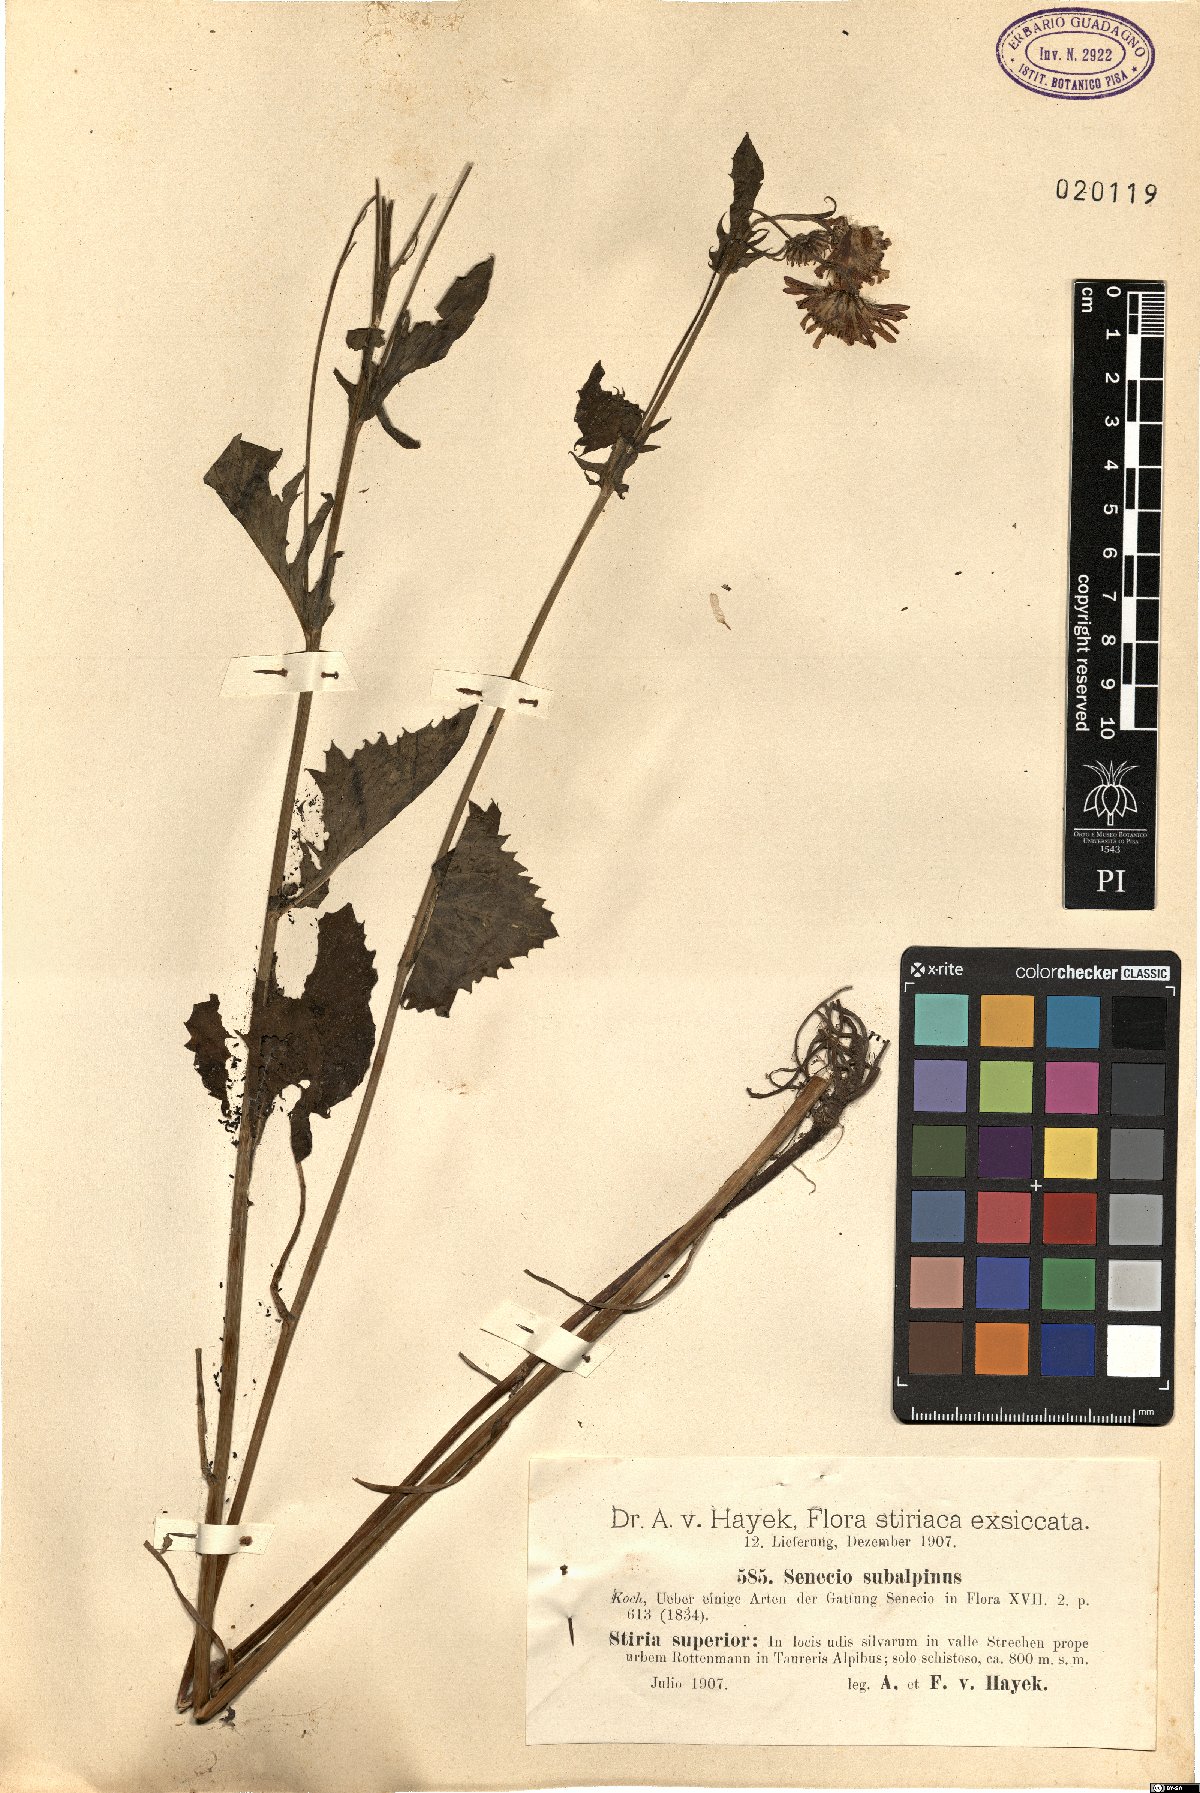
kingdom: Plantae
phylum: Tracheophyta
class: Magnoliopsida
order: Asterales
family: Asteraceae
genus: Jacobaea
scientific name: Jacobaea subalpina
